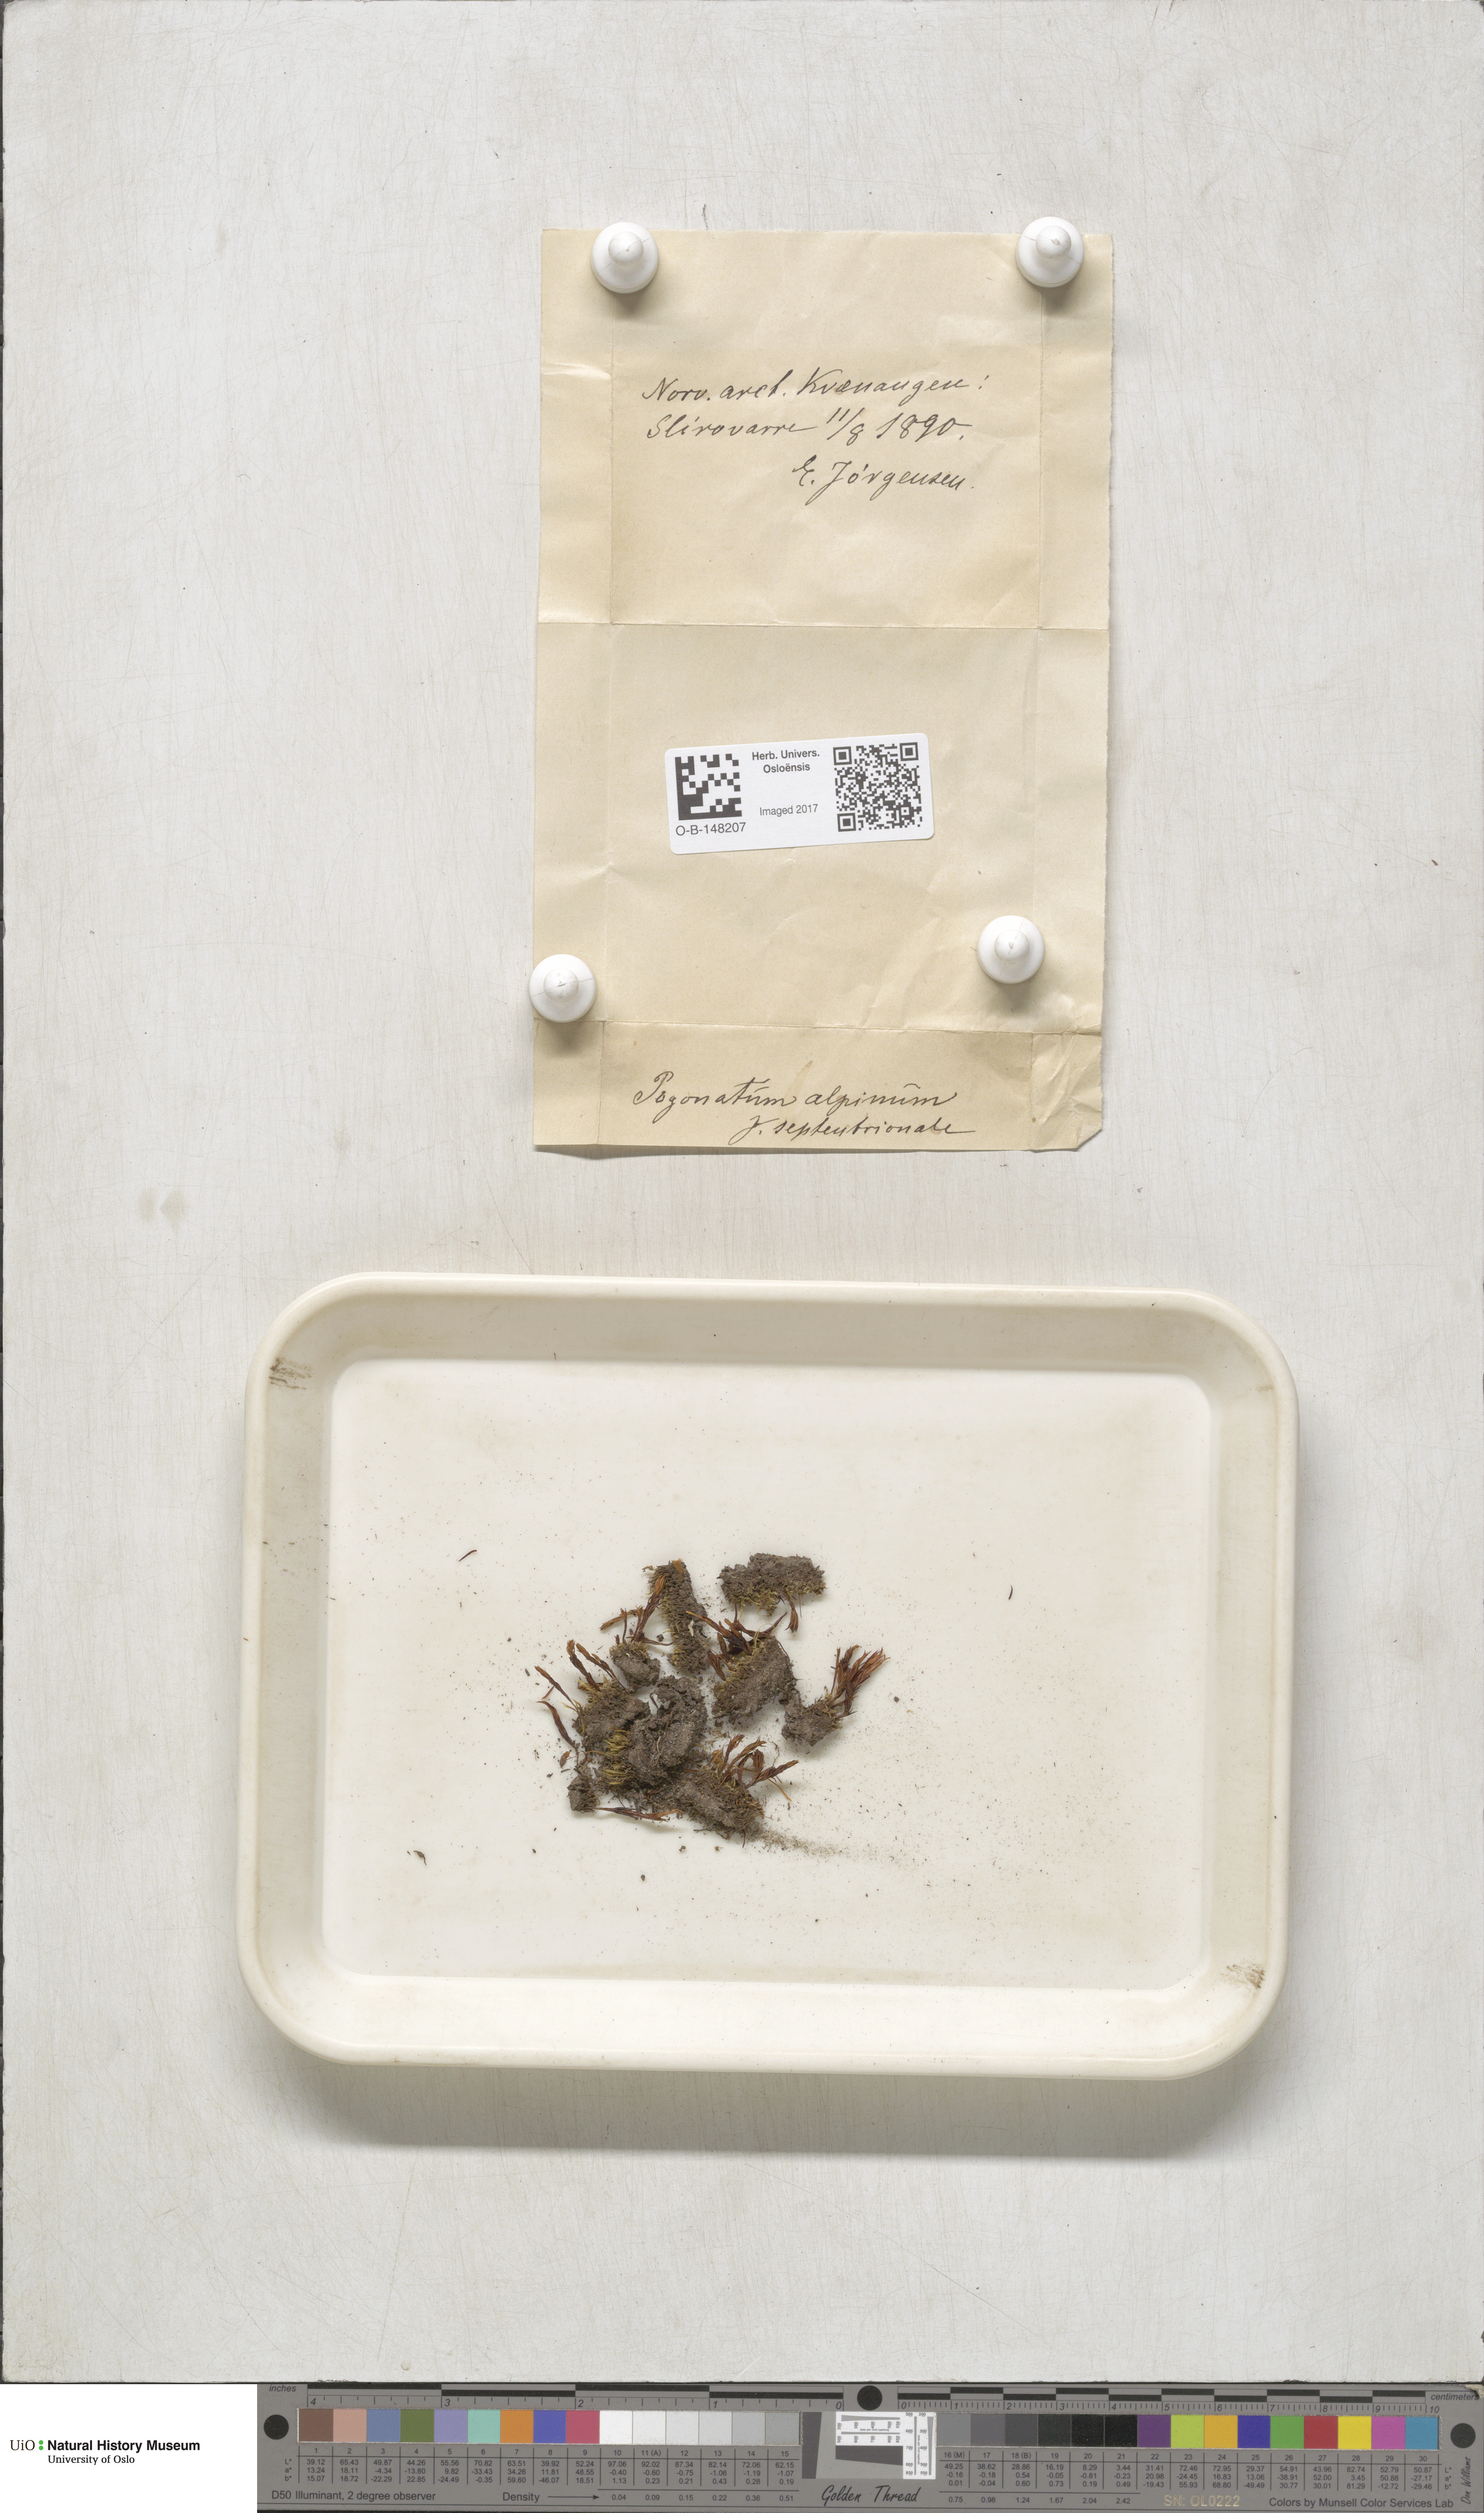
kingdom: Plantae
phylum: Bryophyta
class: Polytrichopsida
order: Polytrichales
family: Polytrichaceae
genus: Polytrichastrum
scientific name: Polytrichastrum alpinum
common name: Alpine haircap
